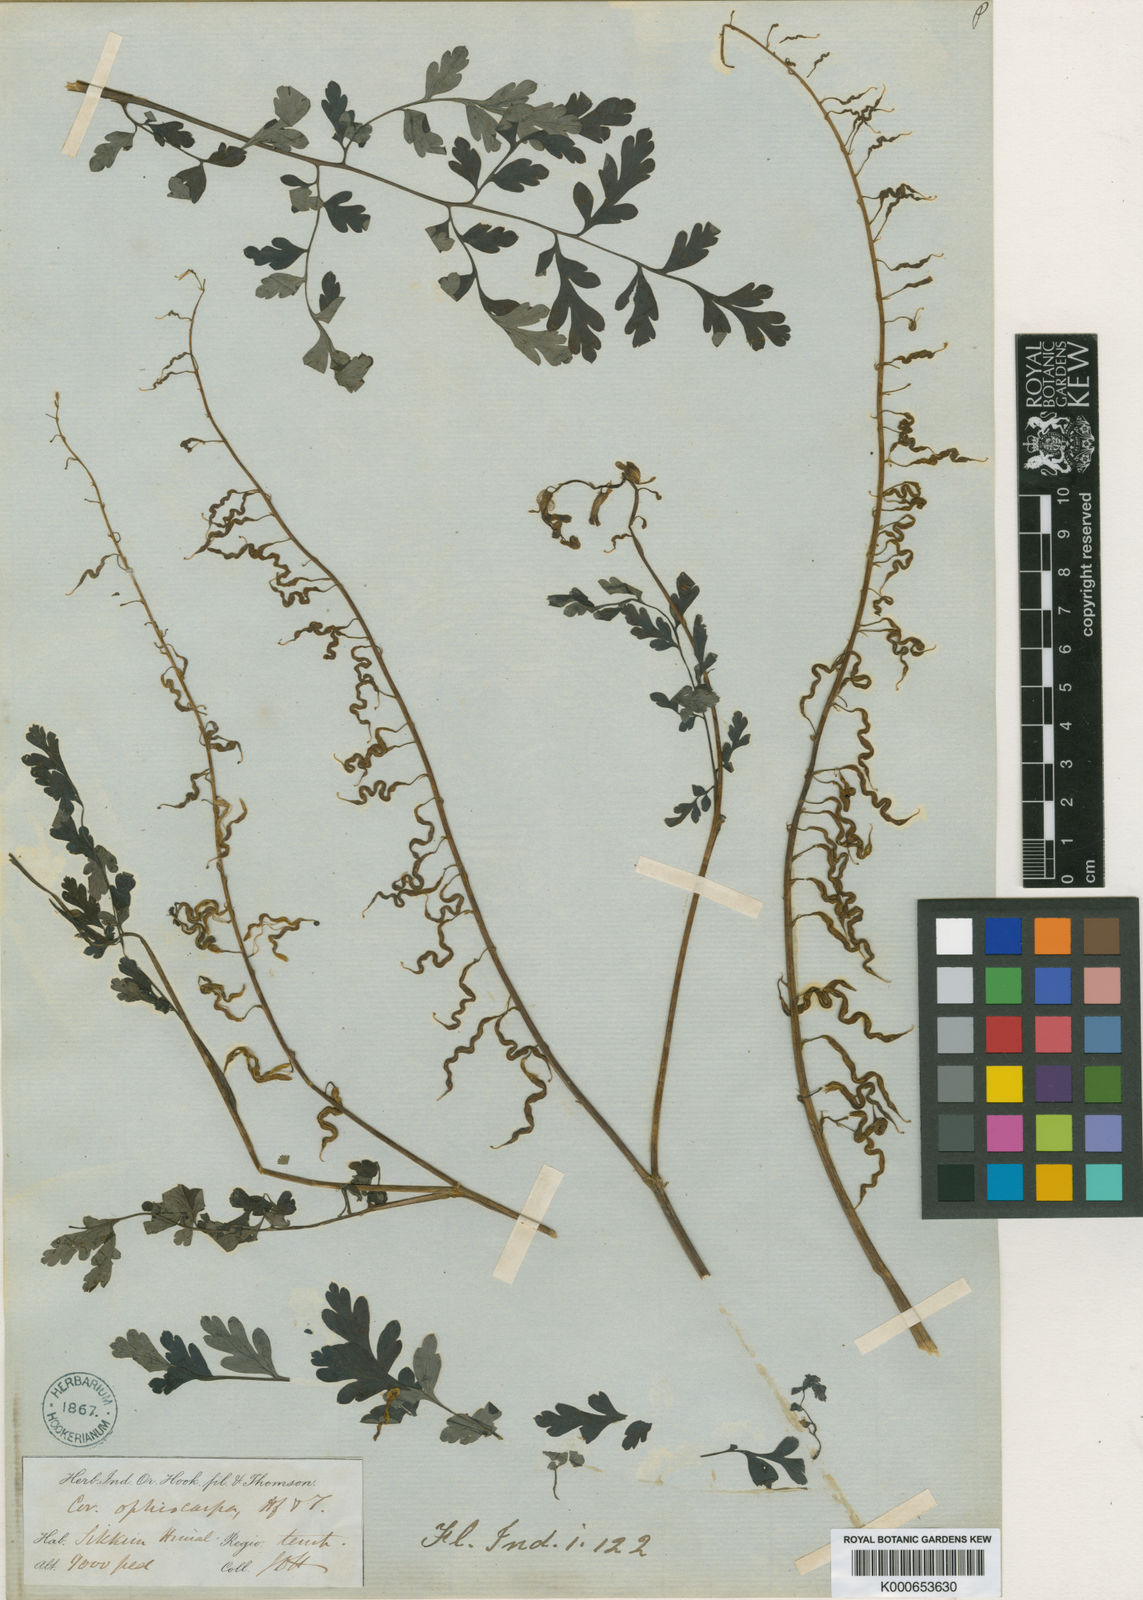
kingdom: Plantae
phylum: Tracheophyta
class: Magnoliopsida
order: Ranunculales
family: Papaveraceae
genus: Corydalis
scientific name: Corydalis ophiocarpa
